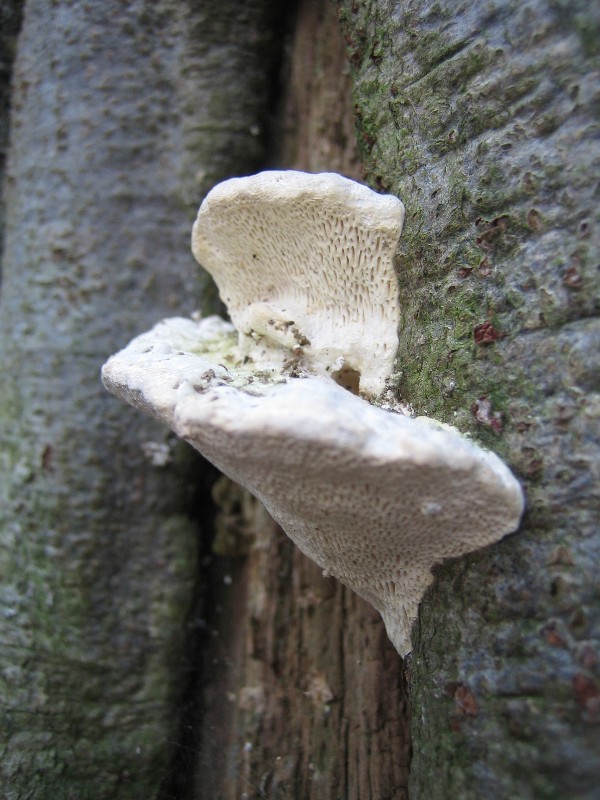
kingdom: Fungi
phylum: Basidiomycota
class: Agaricomycetes
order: Polyporales
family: Polyporaceae
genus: Trametes
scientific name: Trametes gibbosa
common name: puklet læderporesvamp
